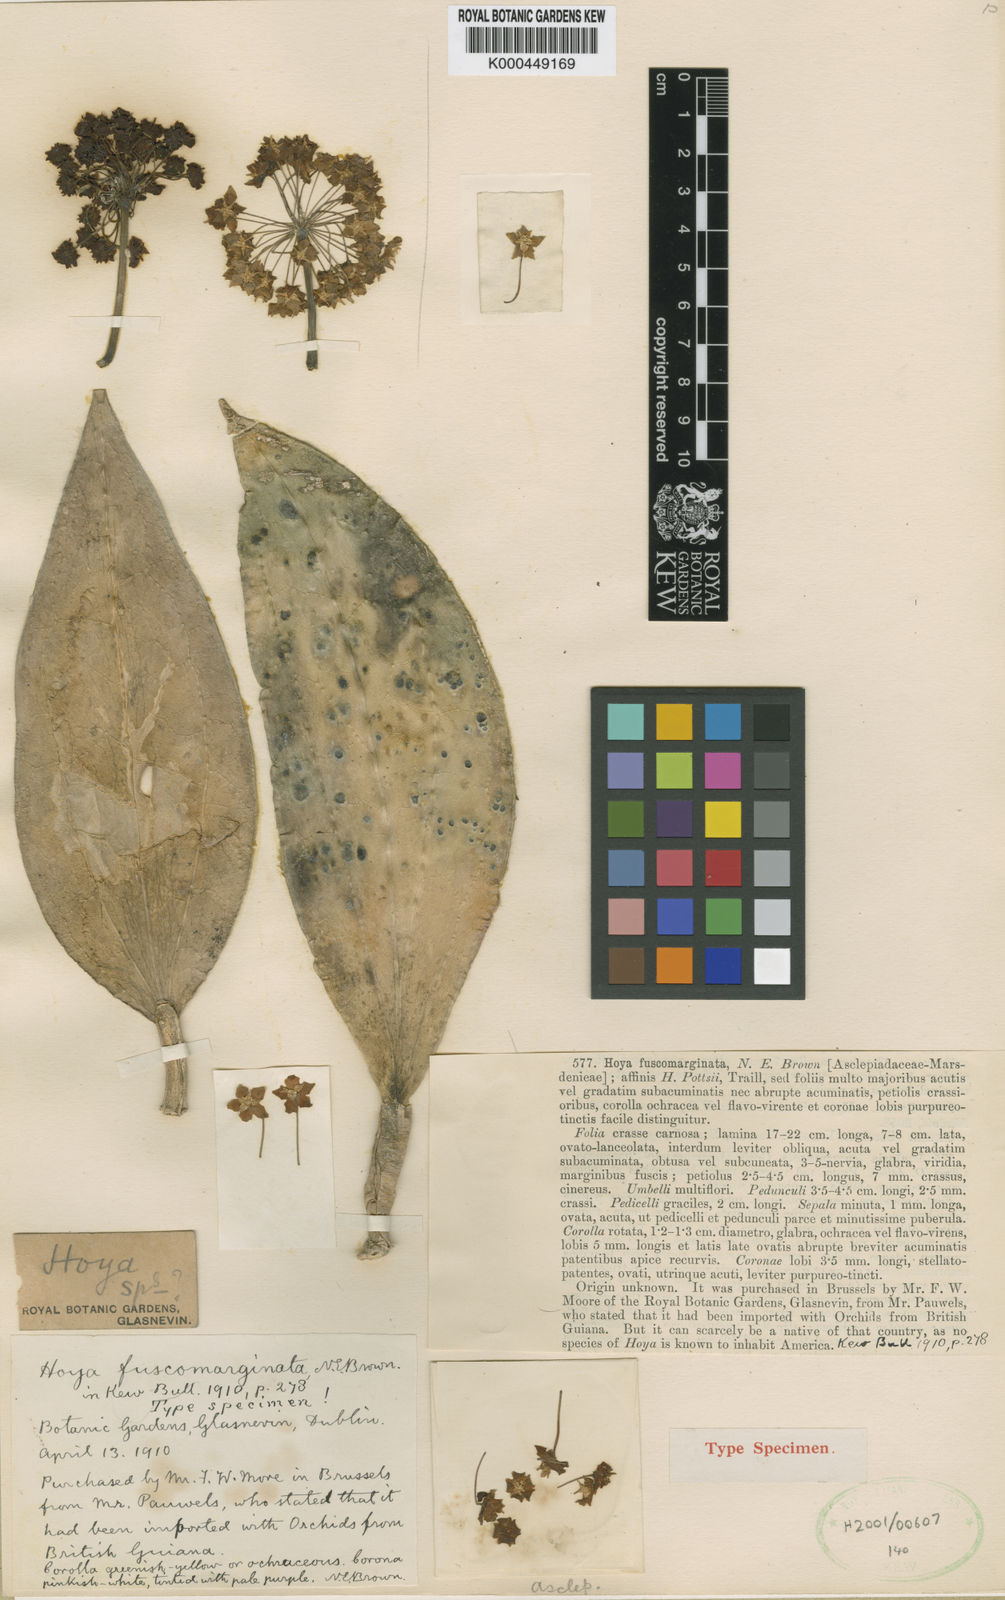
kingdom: Plantae
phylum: Tracheophyta
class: Magnoliopsida
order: Gentianales
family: Apocynaceae
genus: Hoya
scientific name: Hoya vitellina
